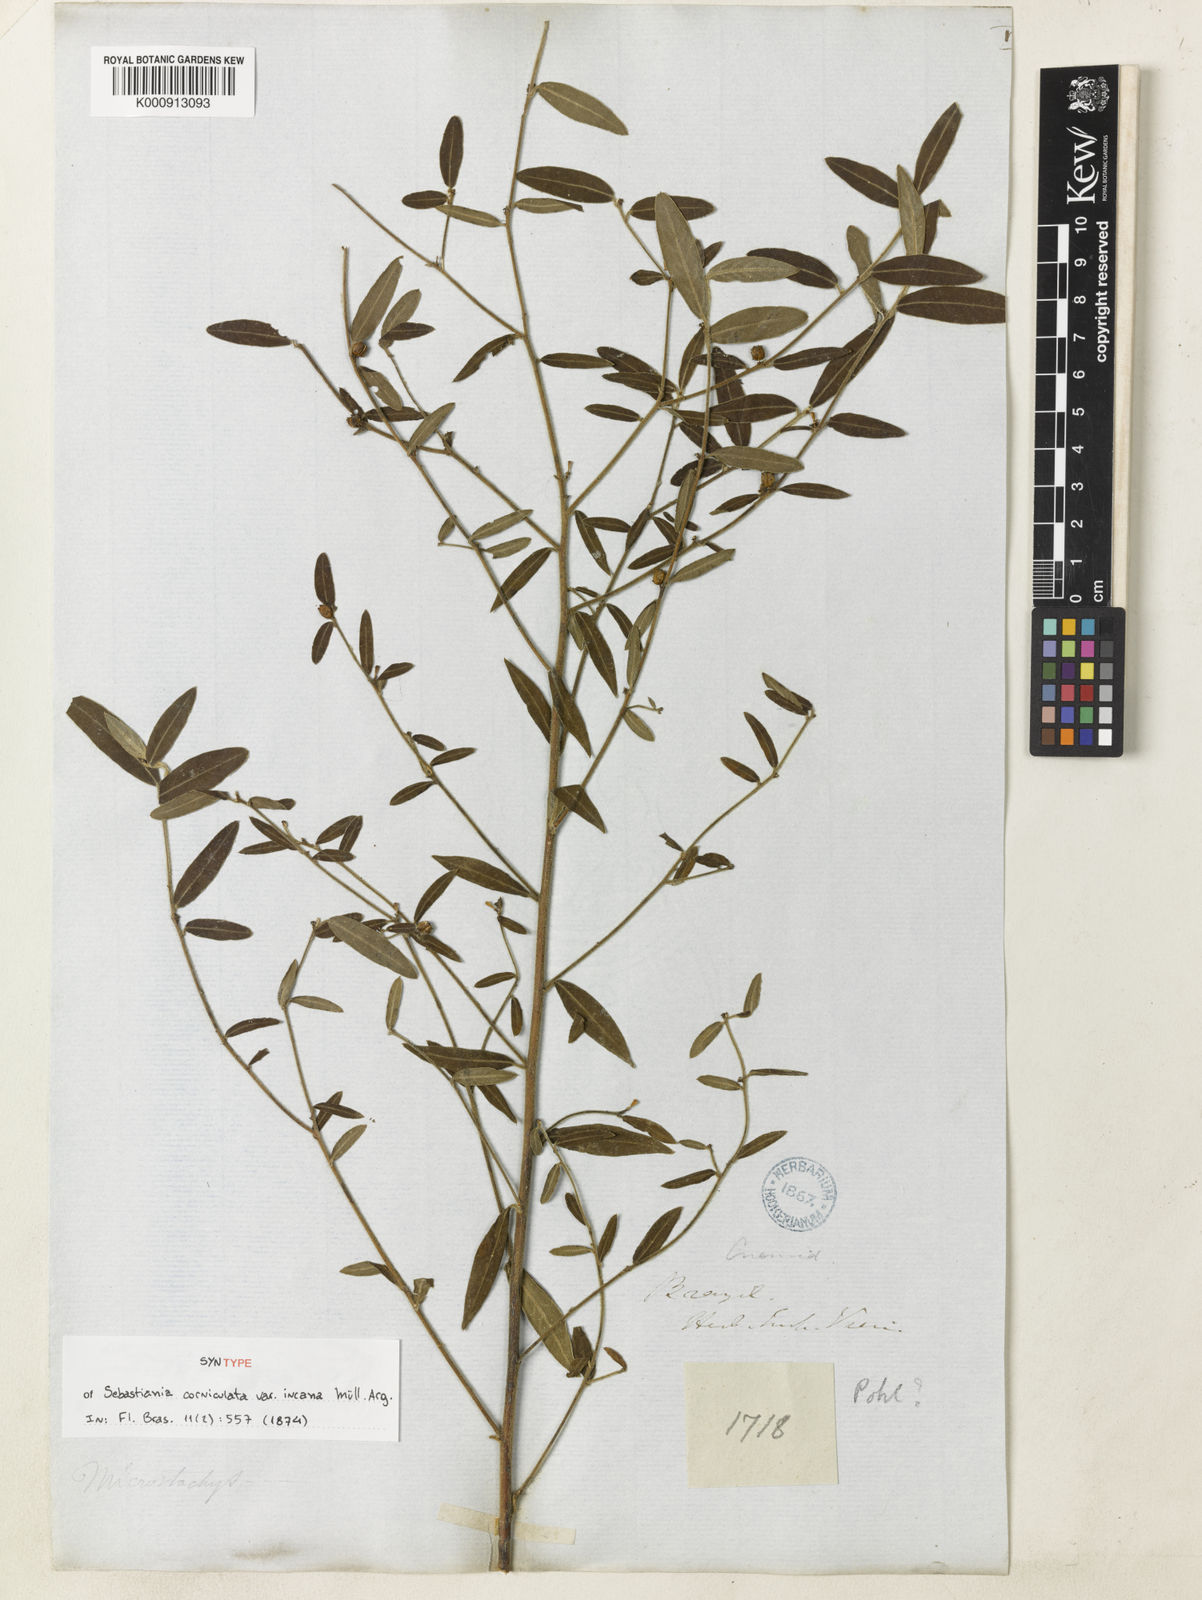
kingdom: Plantae
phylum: Tracheophyta
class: Magnoliopsida
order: Malpighiales
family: Euphorbiaceae
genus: Microstachys
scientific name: Microstachys hispida
